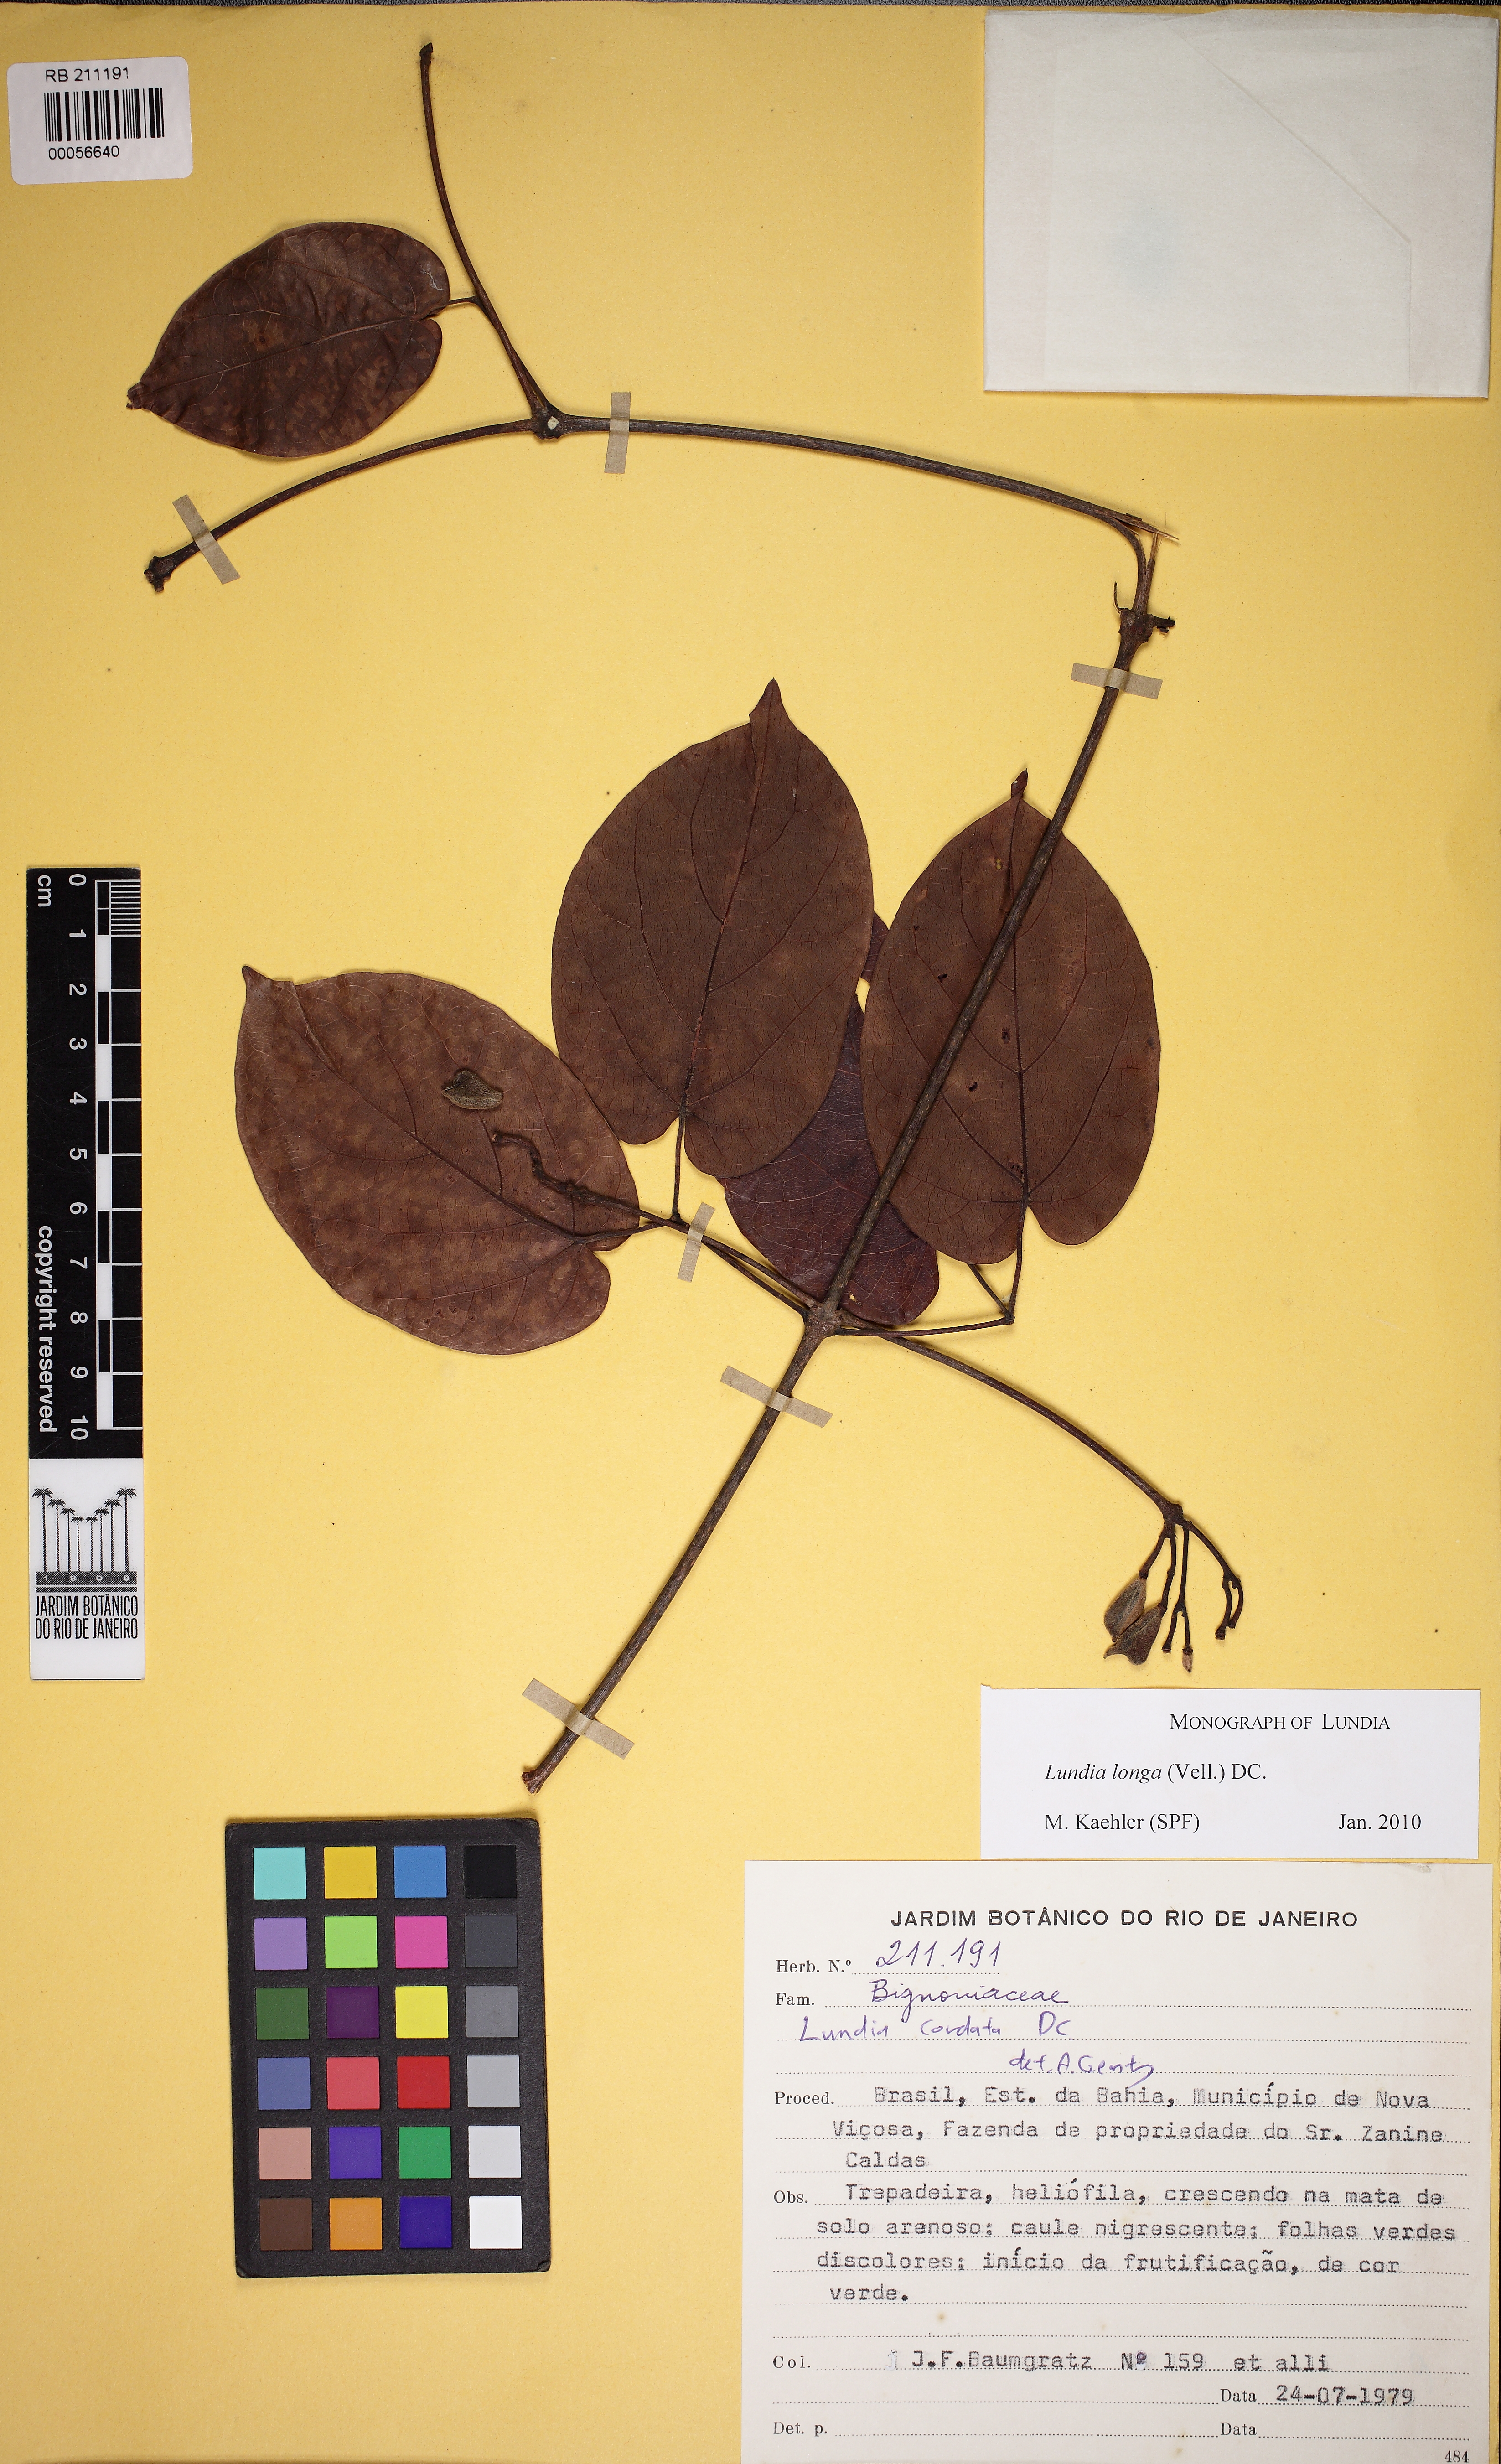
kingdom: Plantae
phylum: Tracheophyta
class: Magnoliopsida
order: Lamiales
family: Bignoniaceae
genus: Lundia
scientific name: Lundia longa
